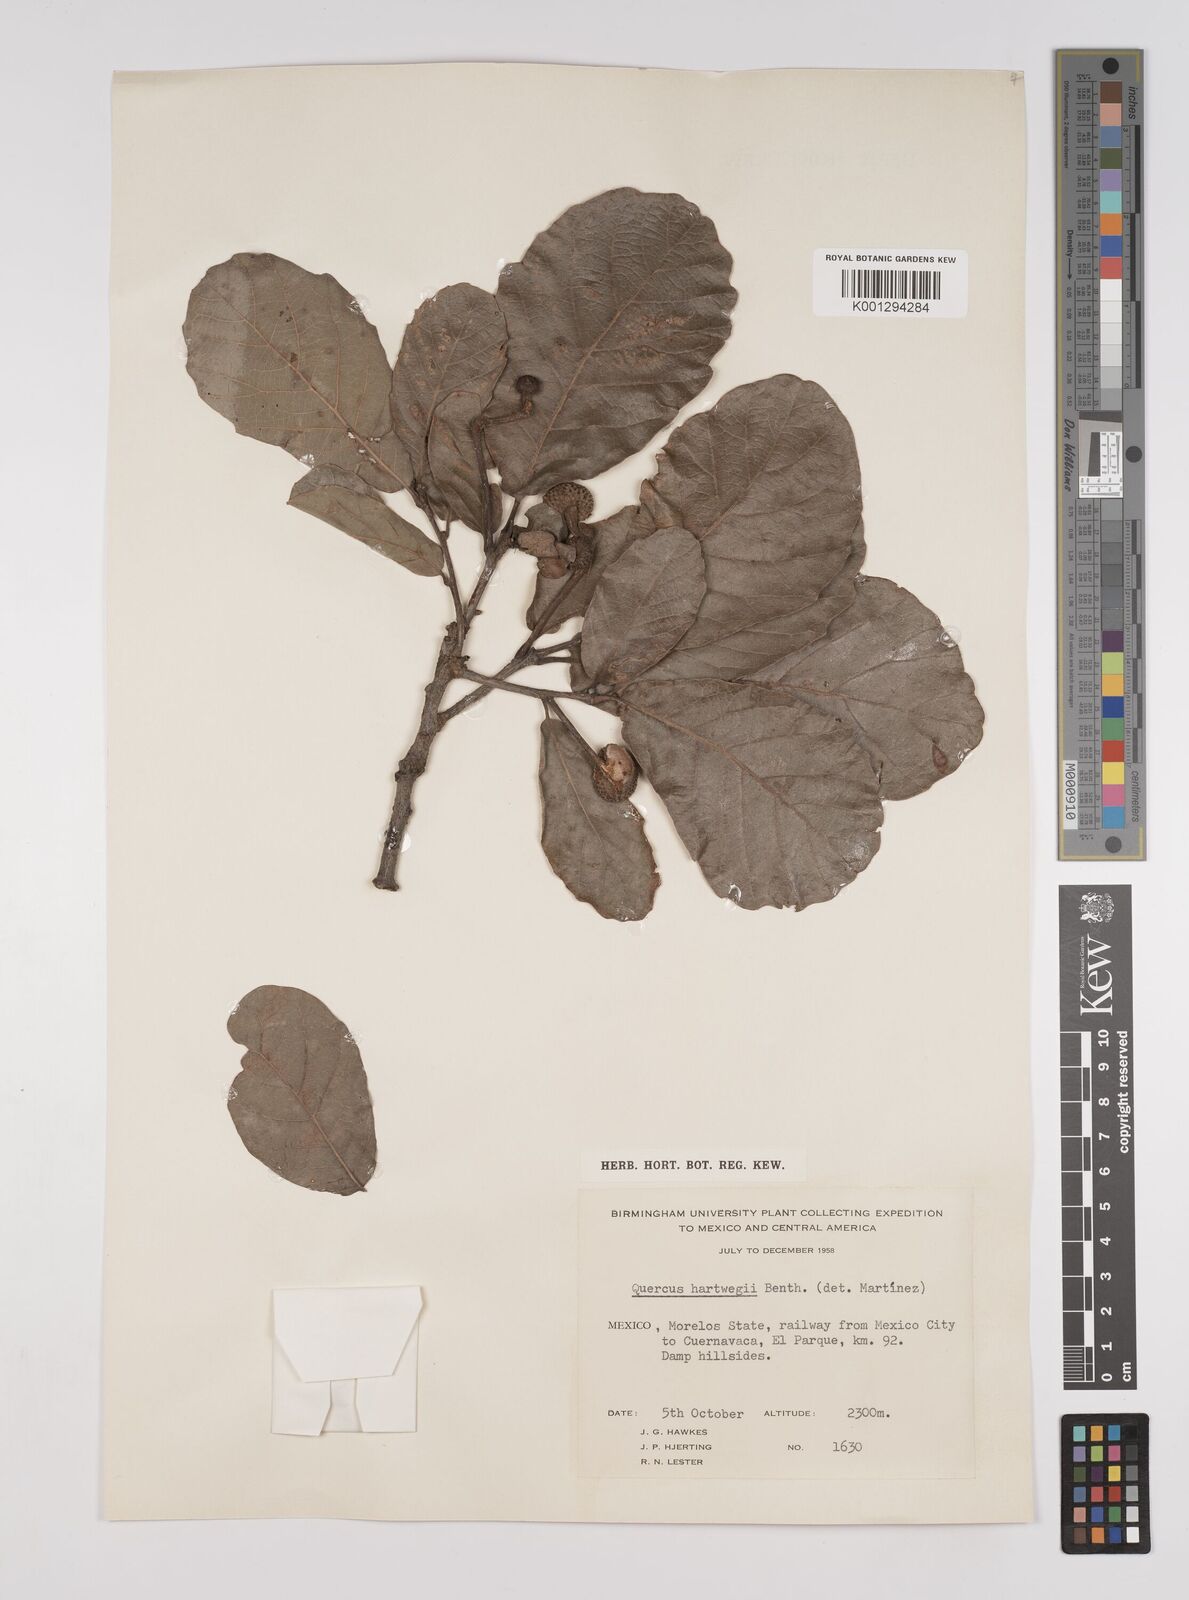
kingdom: Plantae
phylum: Tracheophyta
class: Magnoliopsida
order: Fagales
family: Fagaceae
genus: Quercus
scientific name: Quercus obtusata
